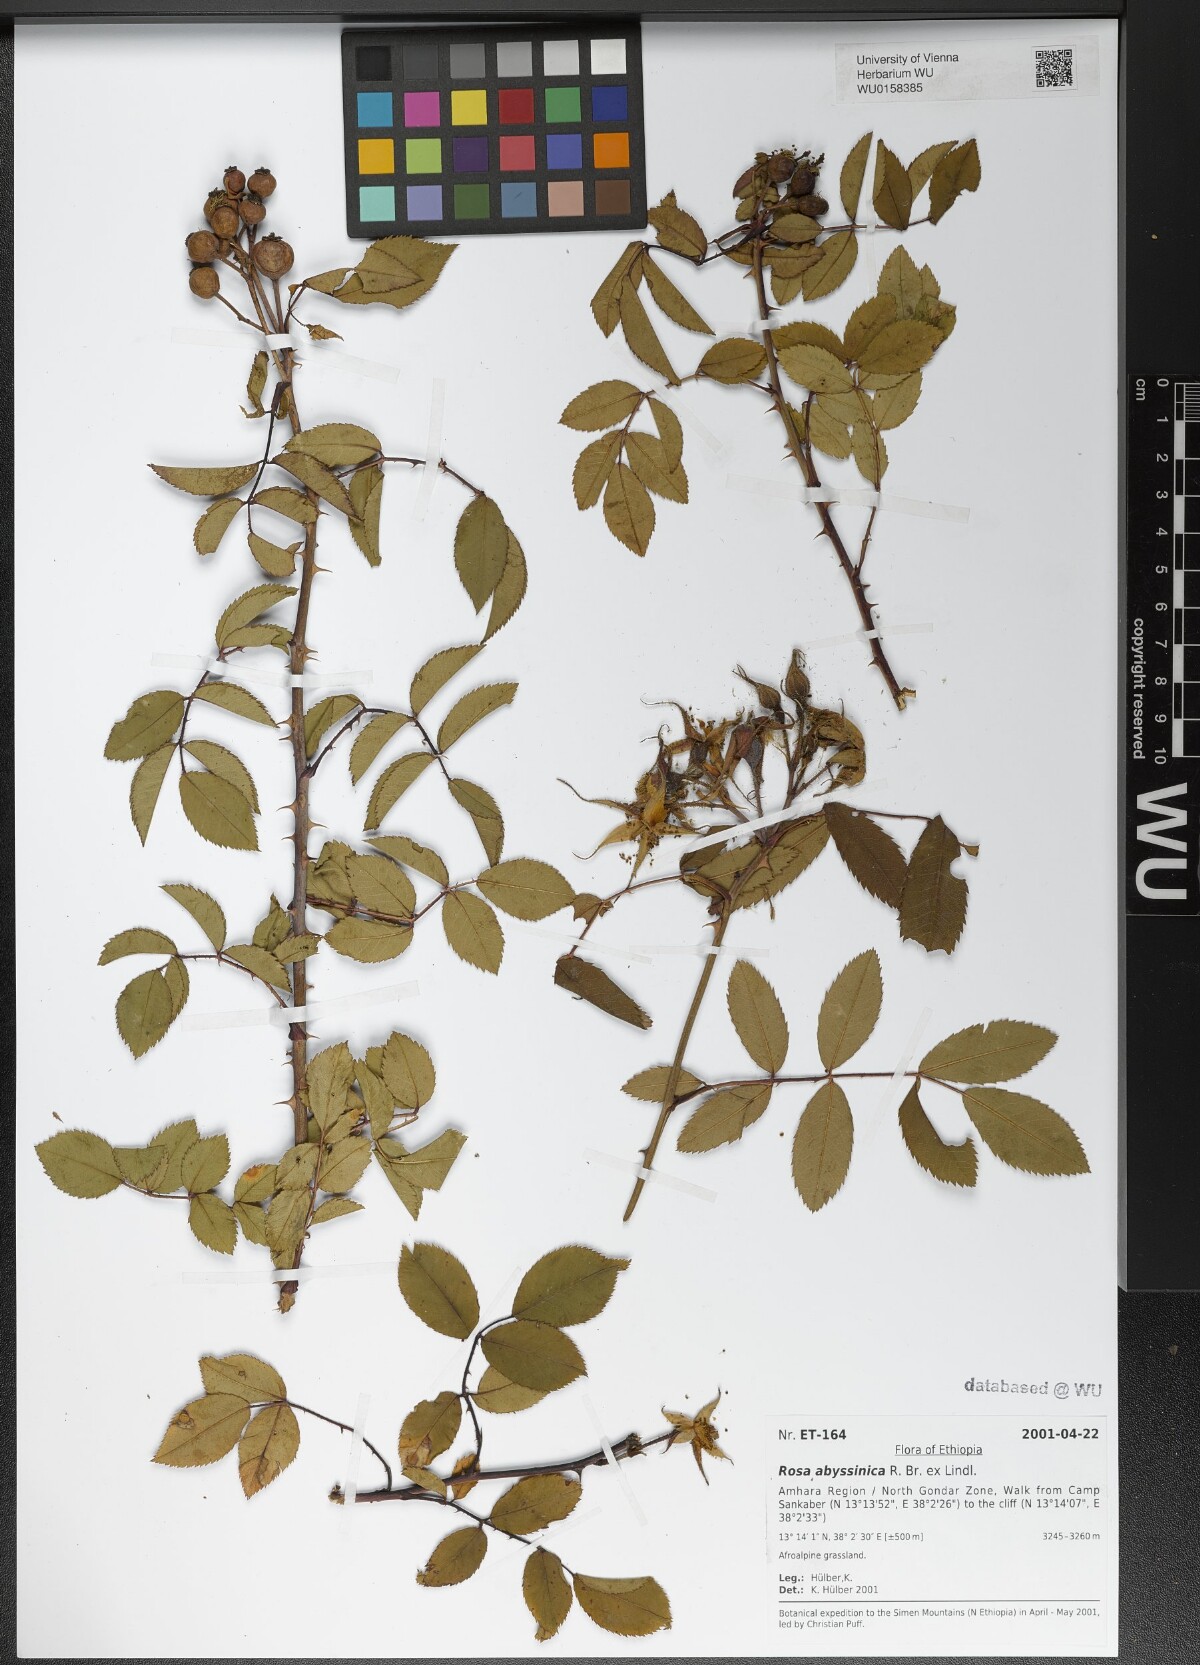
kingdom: Plantae
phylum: Tracheophyta
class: Magnoliopsida
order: Rosales
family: Rosaceae
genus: Rosa
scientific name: Rosa abyssinica
